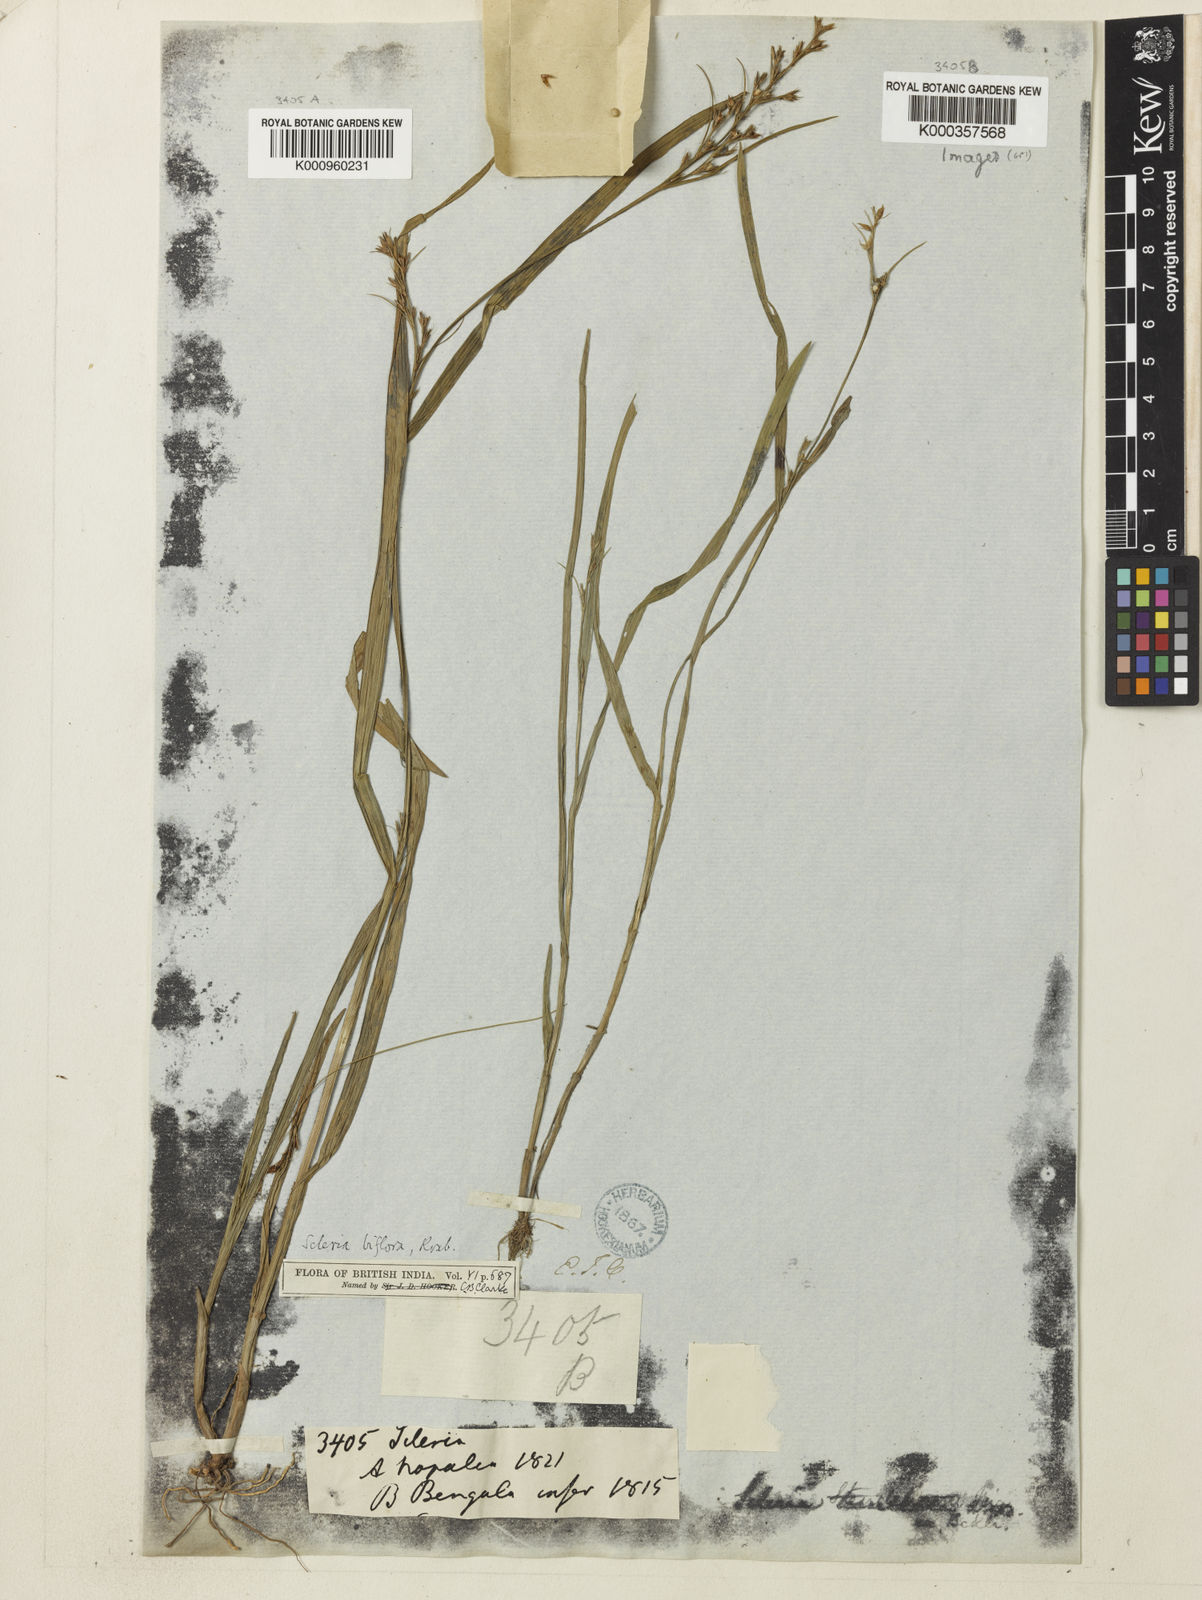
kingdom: Plantae
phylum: Tracheophyta
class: Liliopsida
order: Poales
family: Cyperaceae
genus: Scleria
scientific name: Scleria biflora
